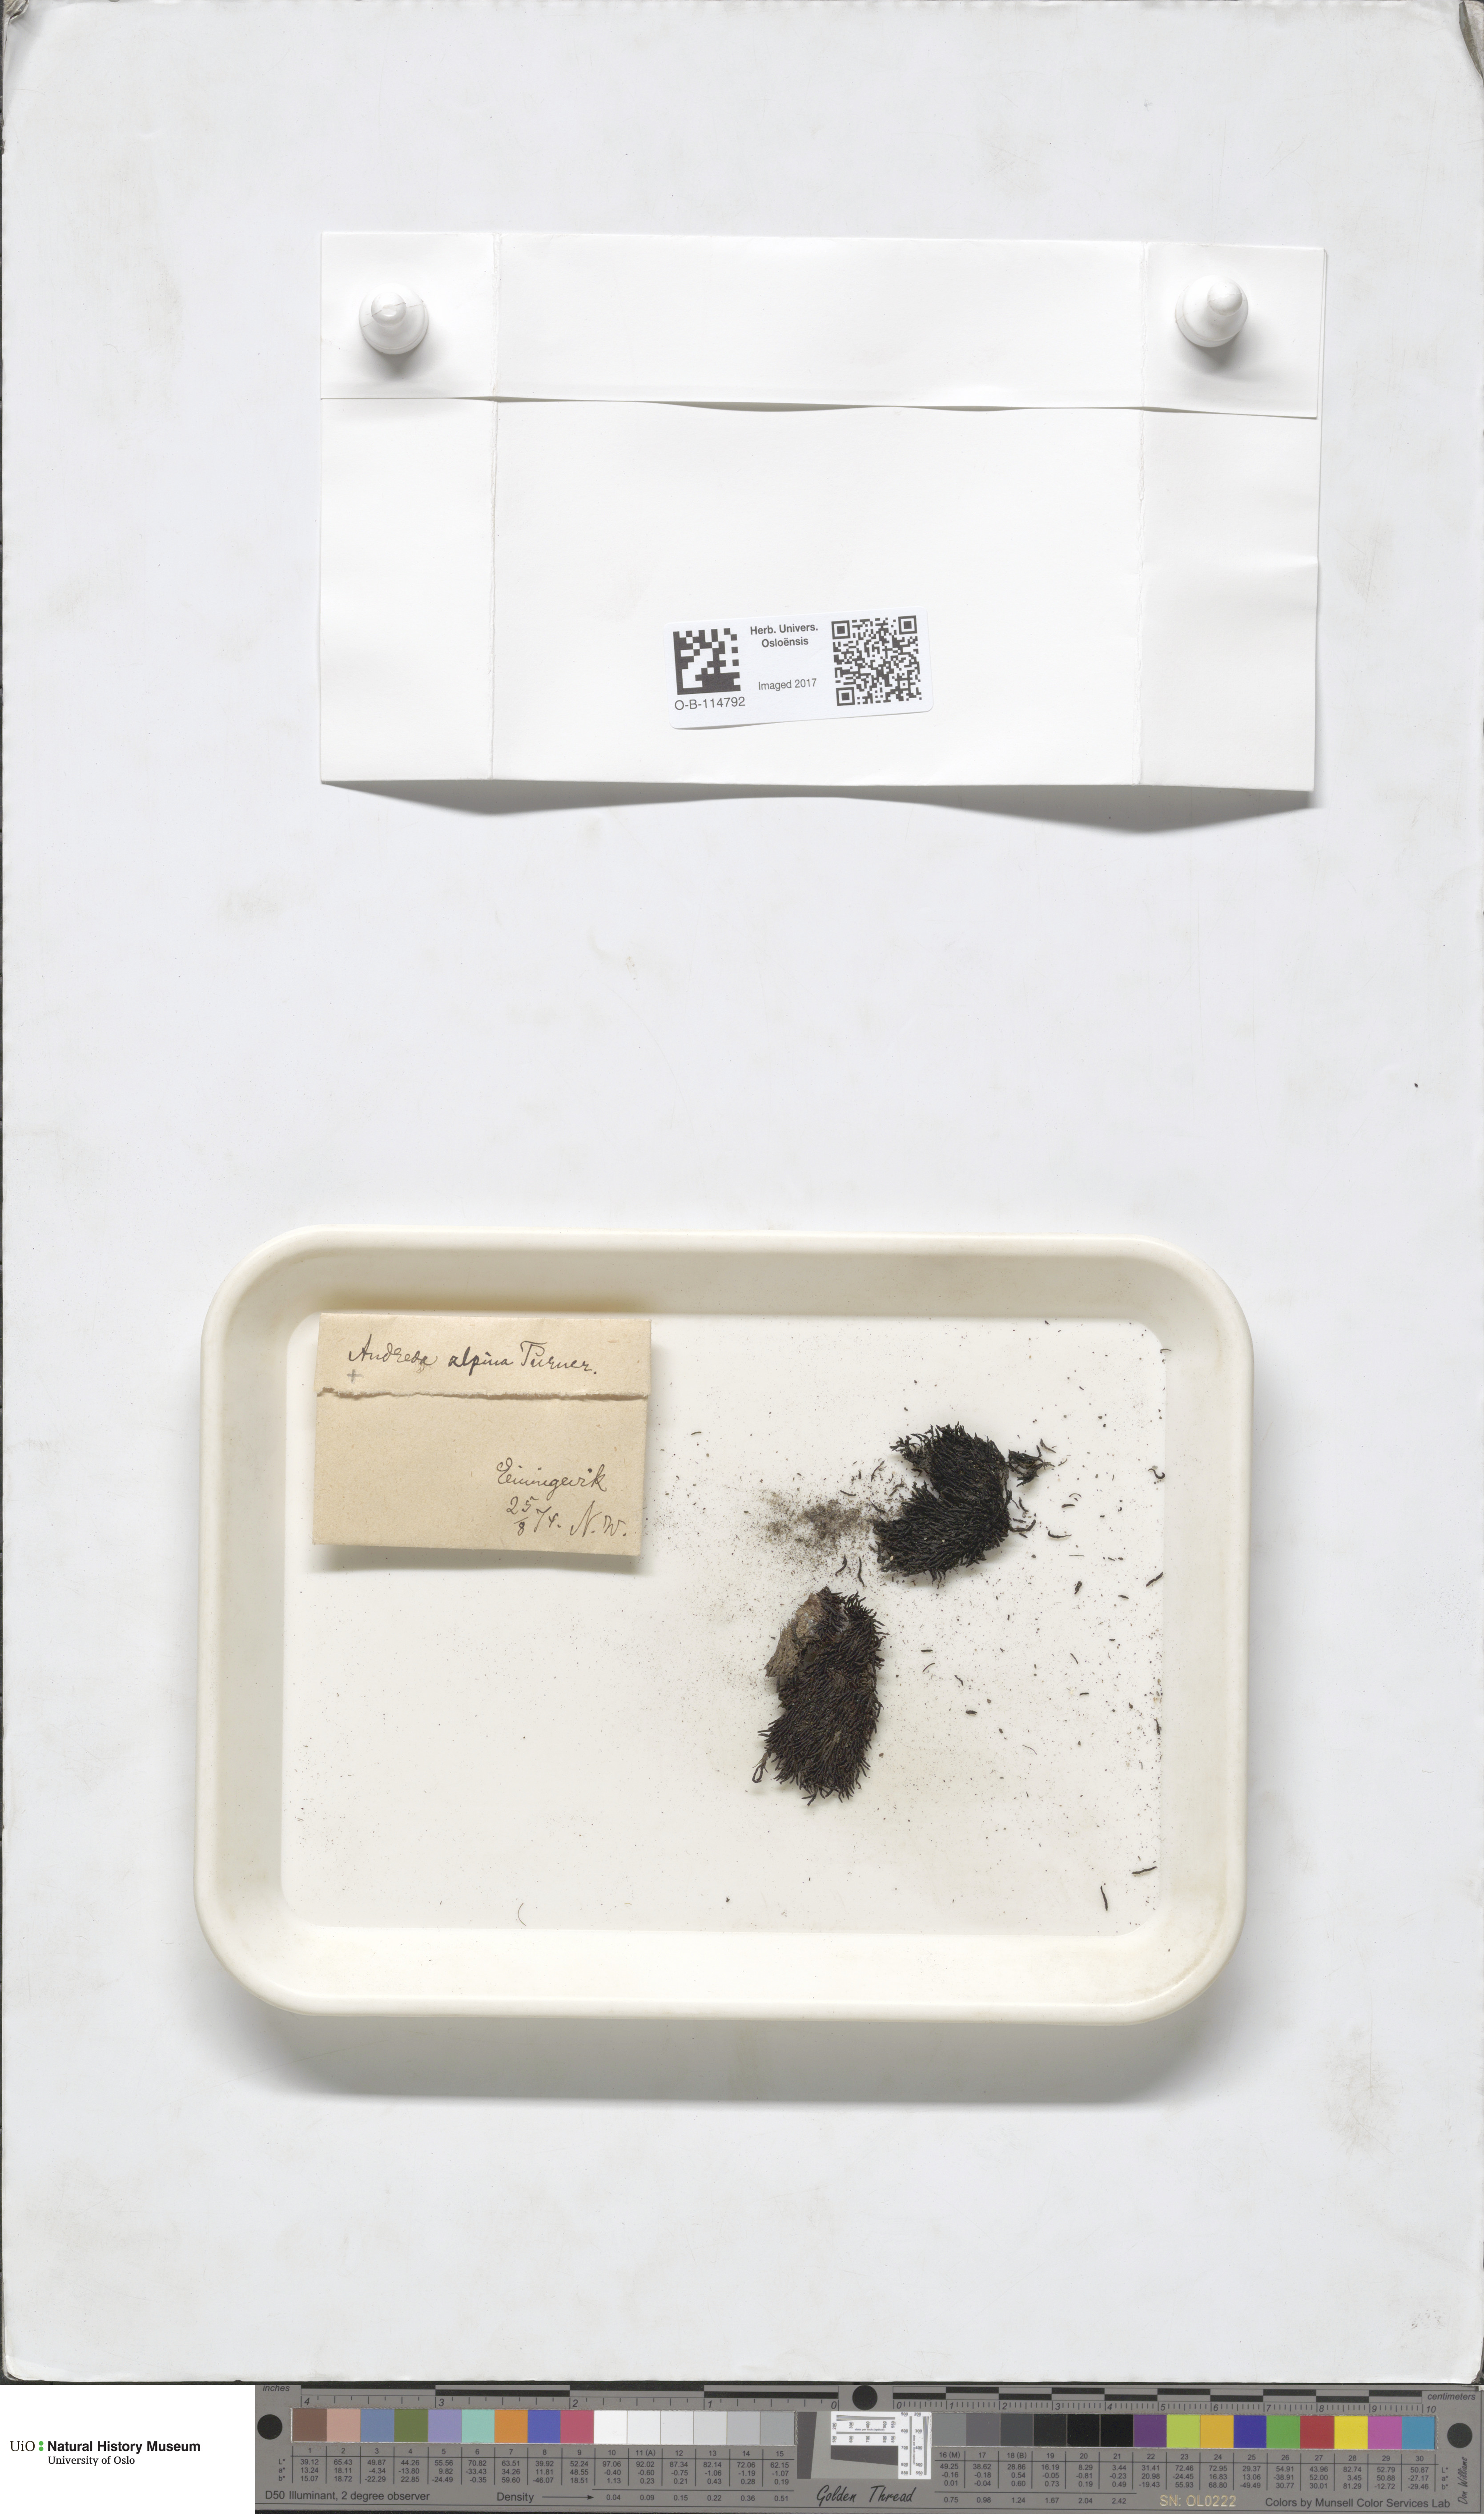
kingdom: Plantae
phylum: Bryophyta
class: Andreaeopsida
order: Andreaeales
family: Andreaeaceae
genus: Andreaea
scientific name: Andreaea hookeri
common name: Alpine rock-moss
